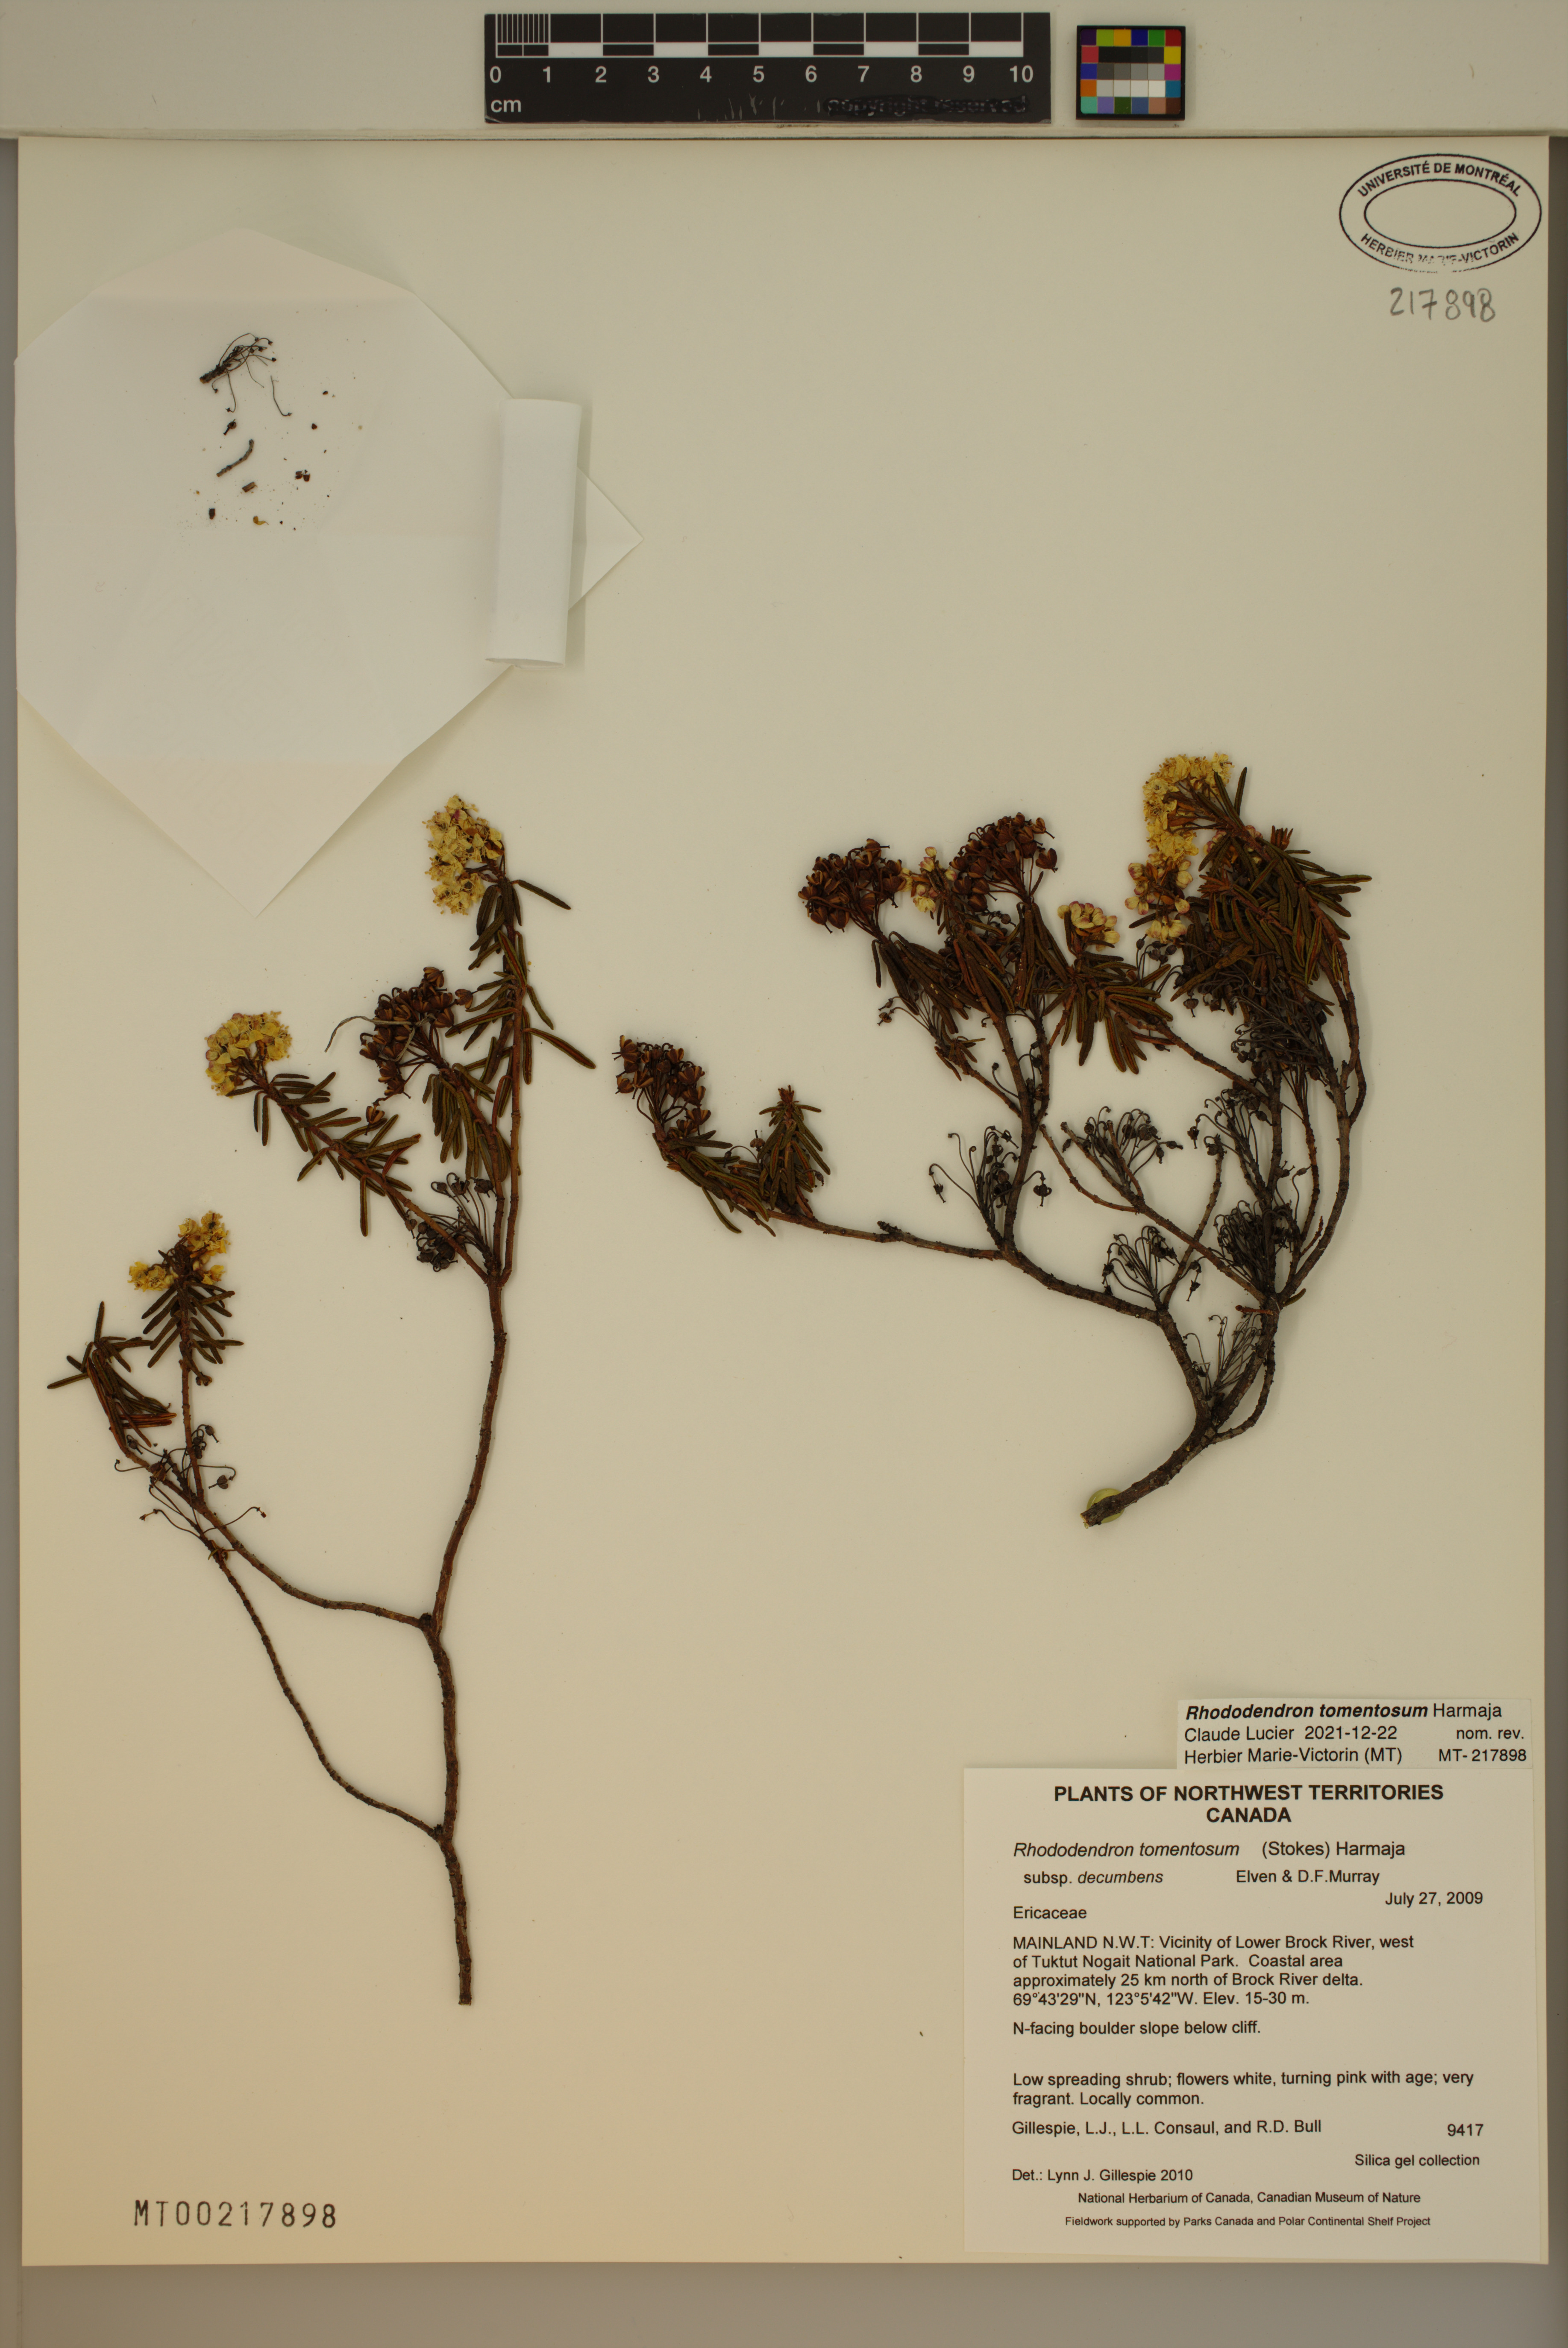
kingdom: Plantae
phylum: Tracheophyta
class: Magnoliopsida
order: Ericales
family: Ericaceae
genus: Rhododendron
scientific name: Rhododendron tomentosum
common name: Marsh labrador tea
